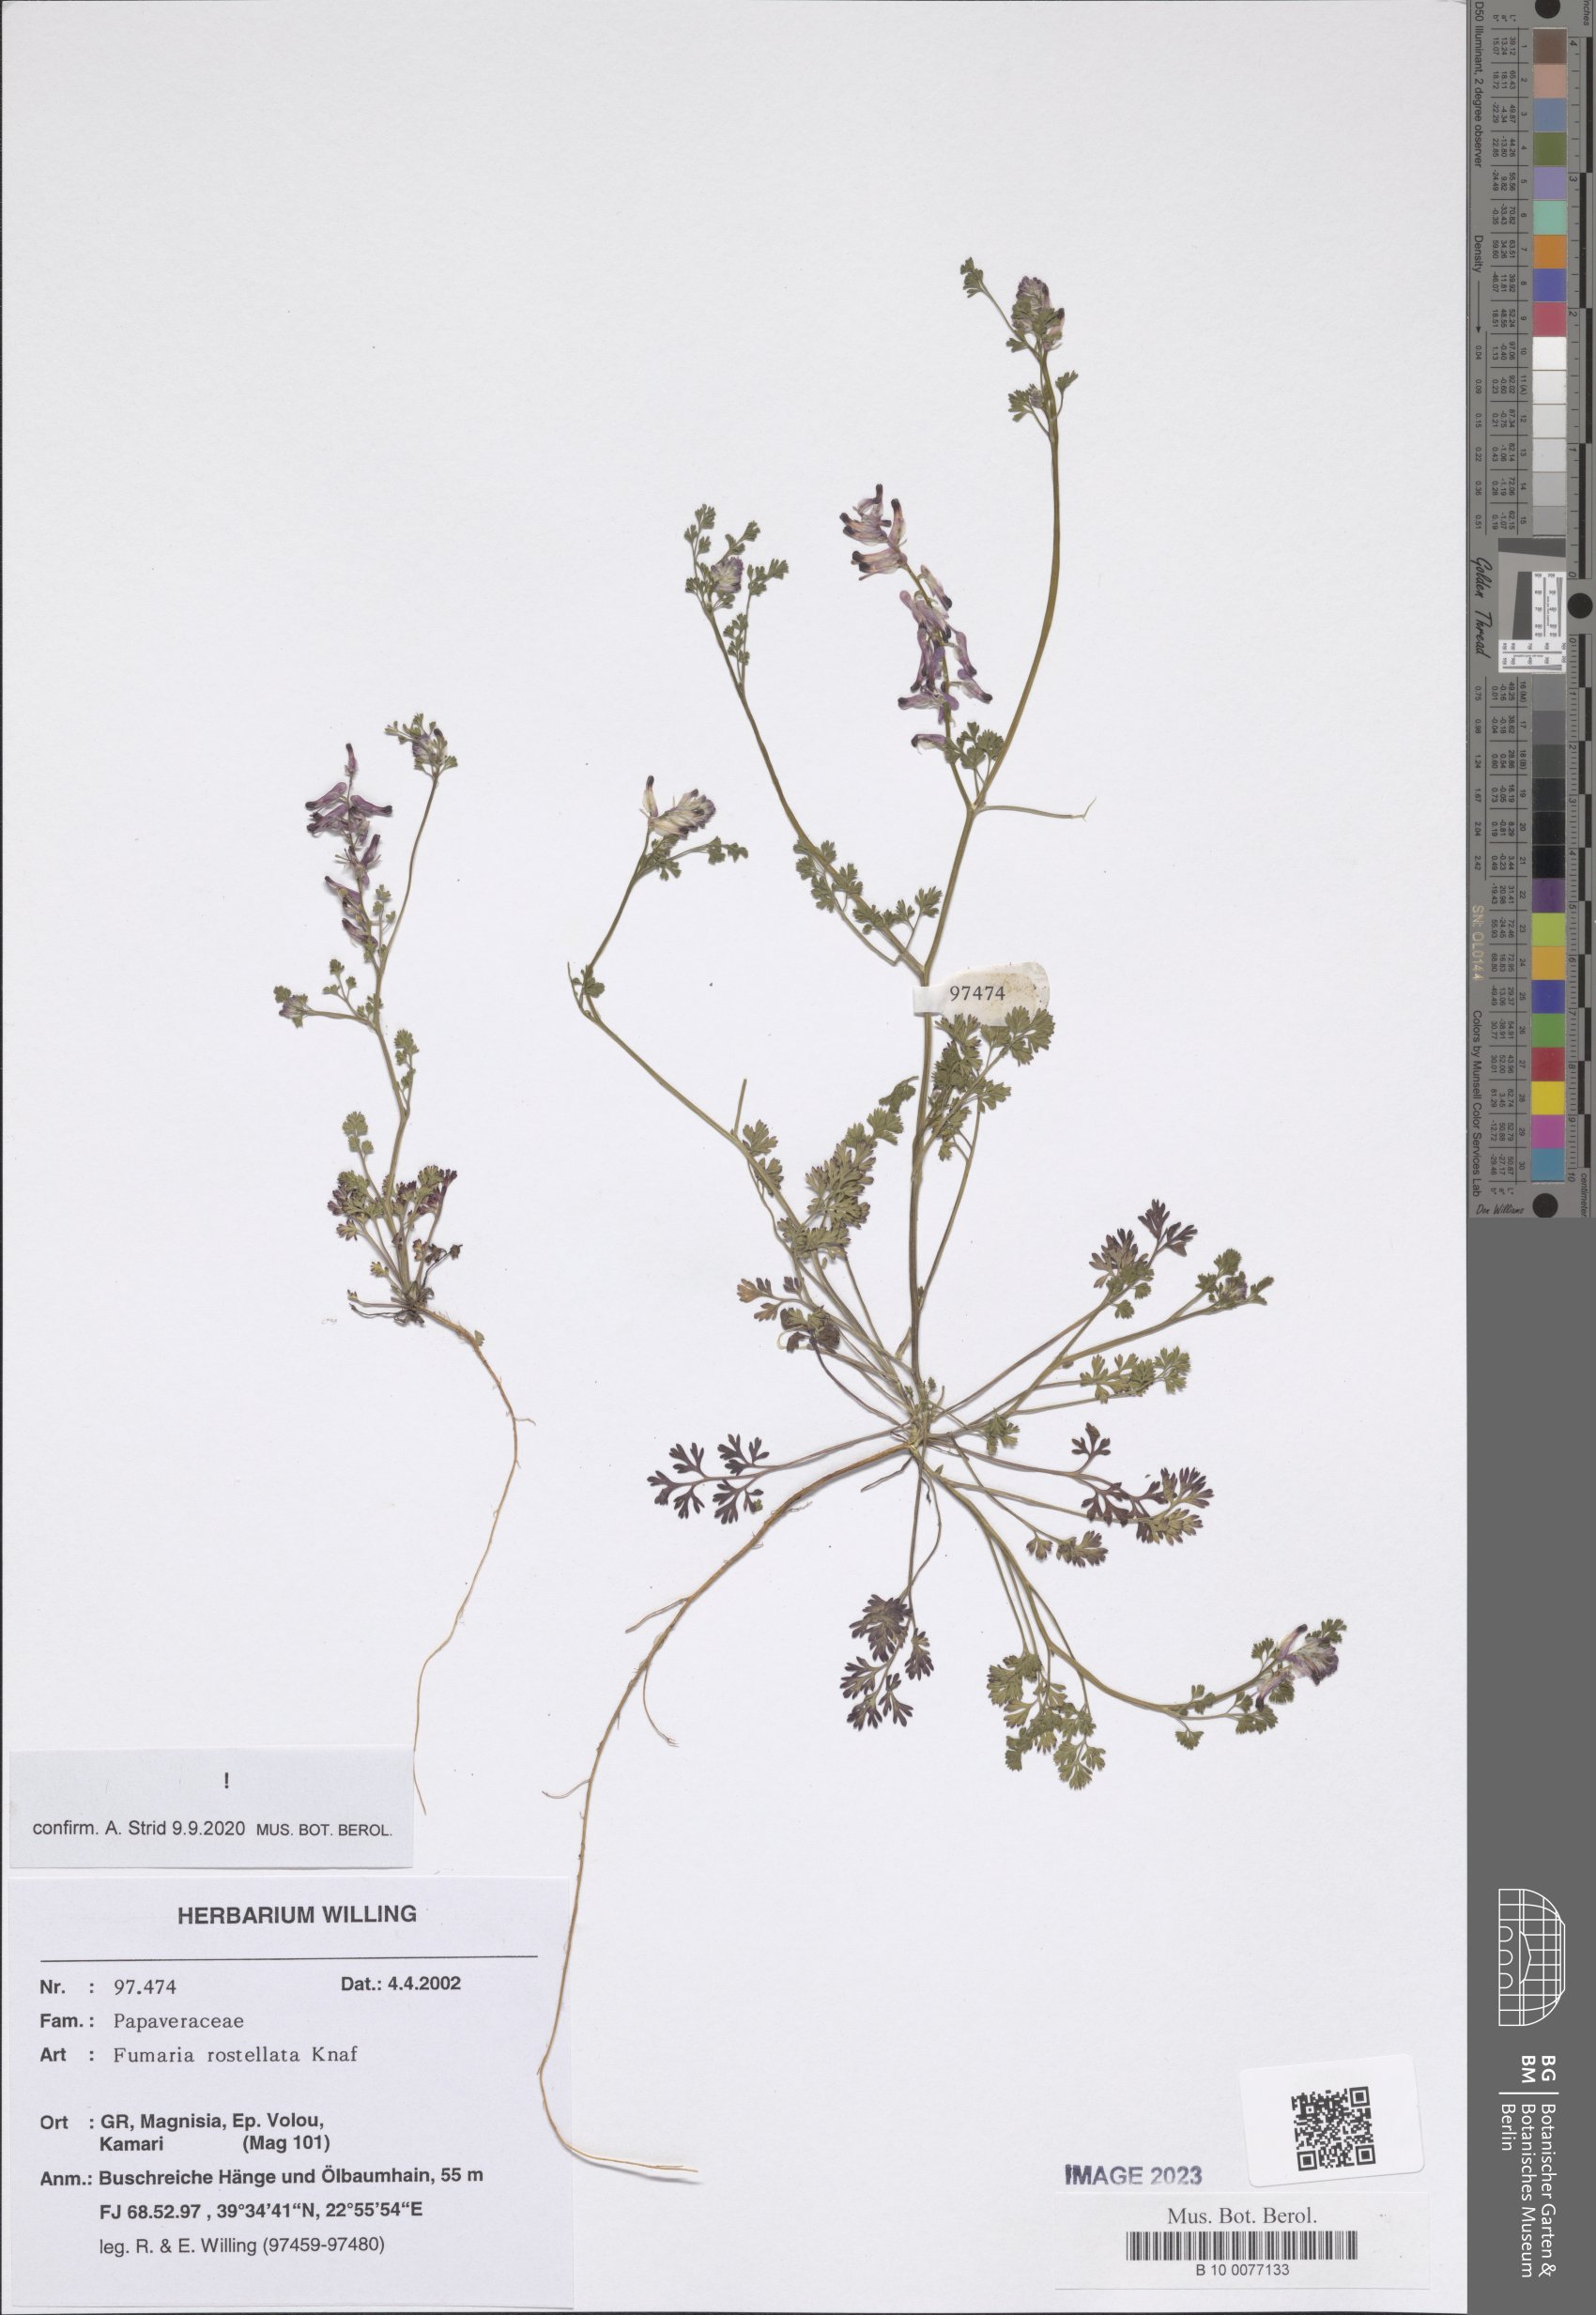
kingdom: Plantae
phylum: Tracheophyta
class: Magnoliopsida
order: Ranunculales
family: Papaveraceae
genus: Fumaria
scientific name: Fumaria rostellata
